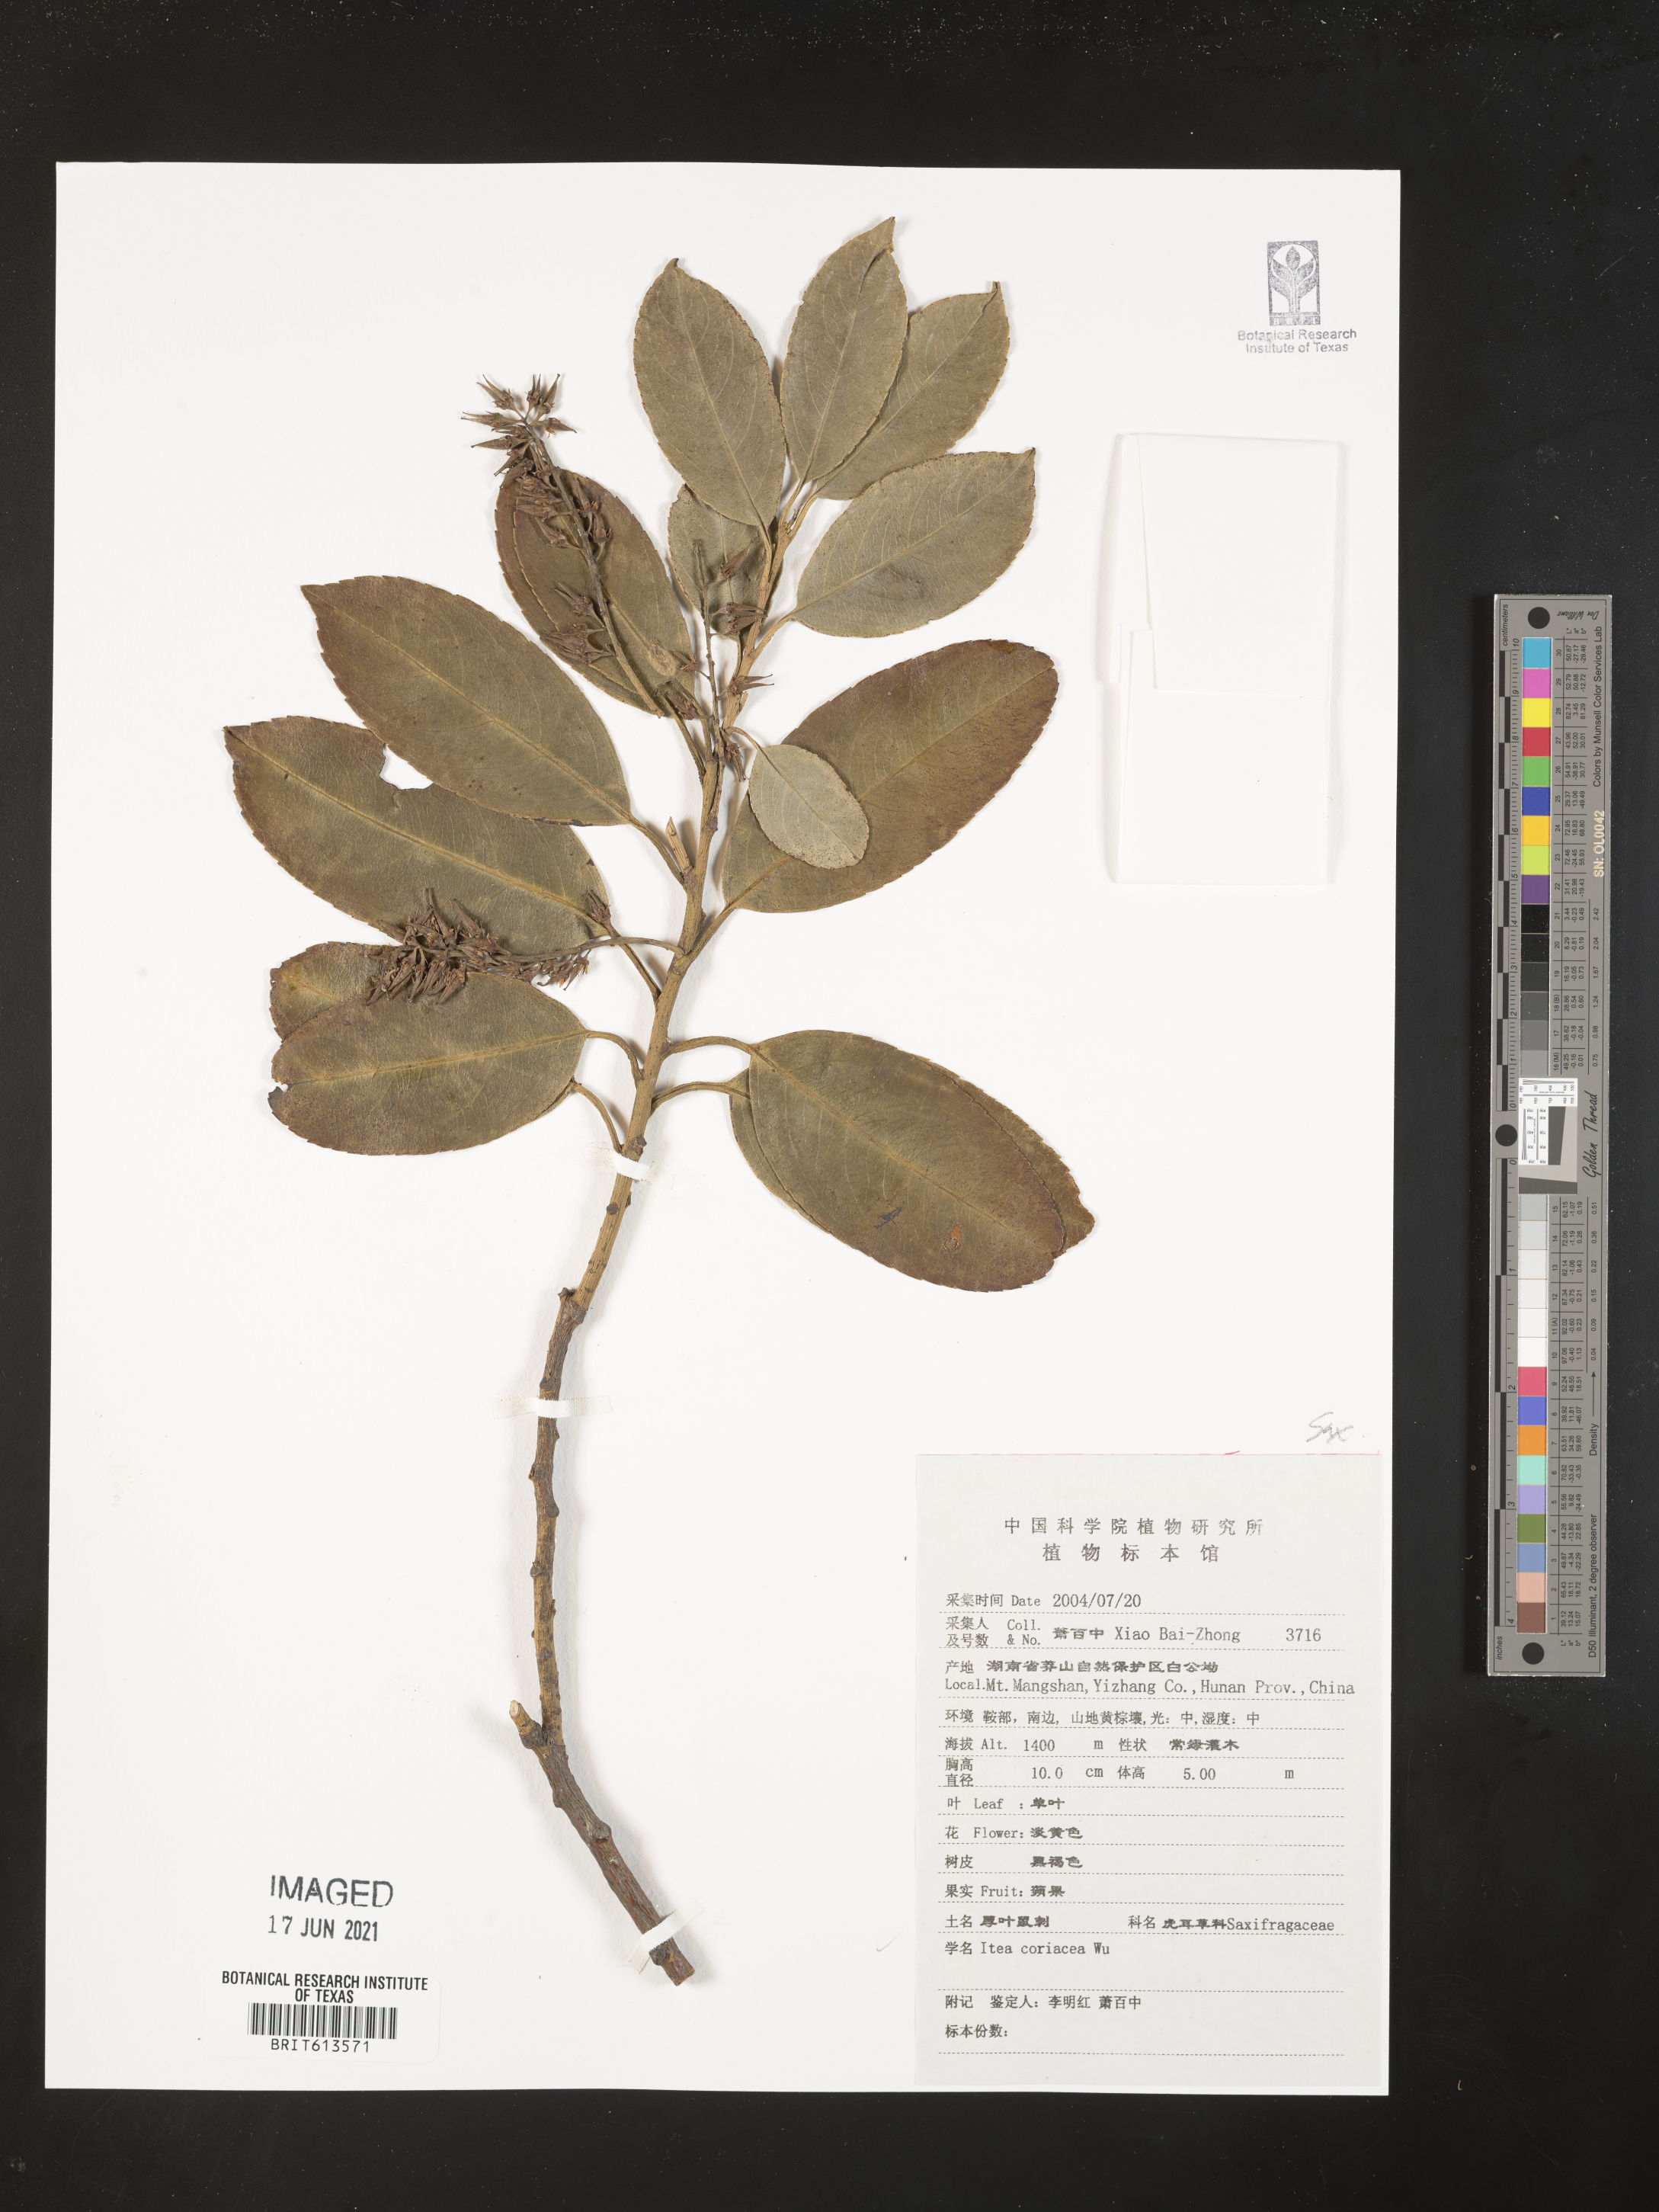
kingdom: Plantae
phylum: Tracheophyta
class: Magnoliopsida
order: Saxifragales
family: Iteaceae
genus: Itea
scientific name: Itea coriacea
